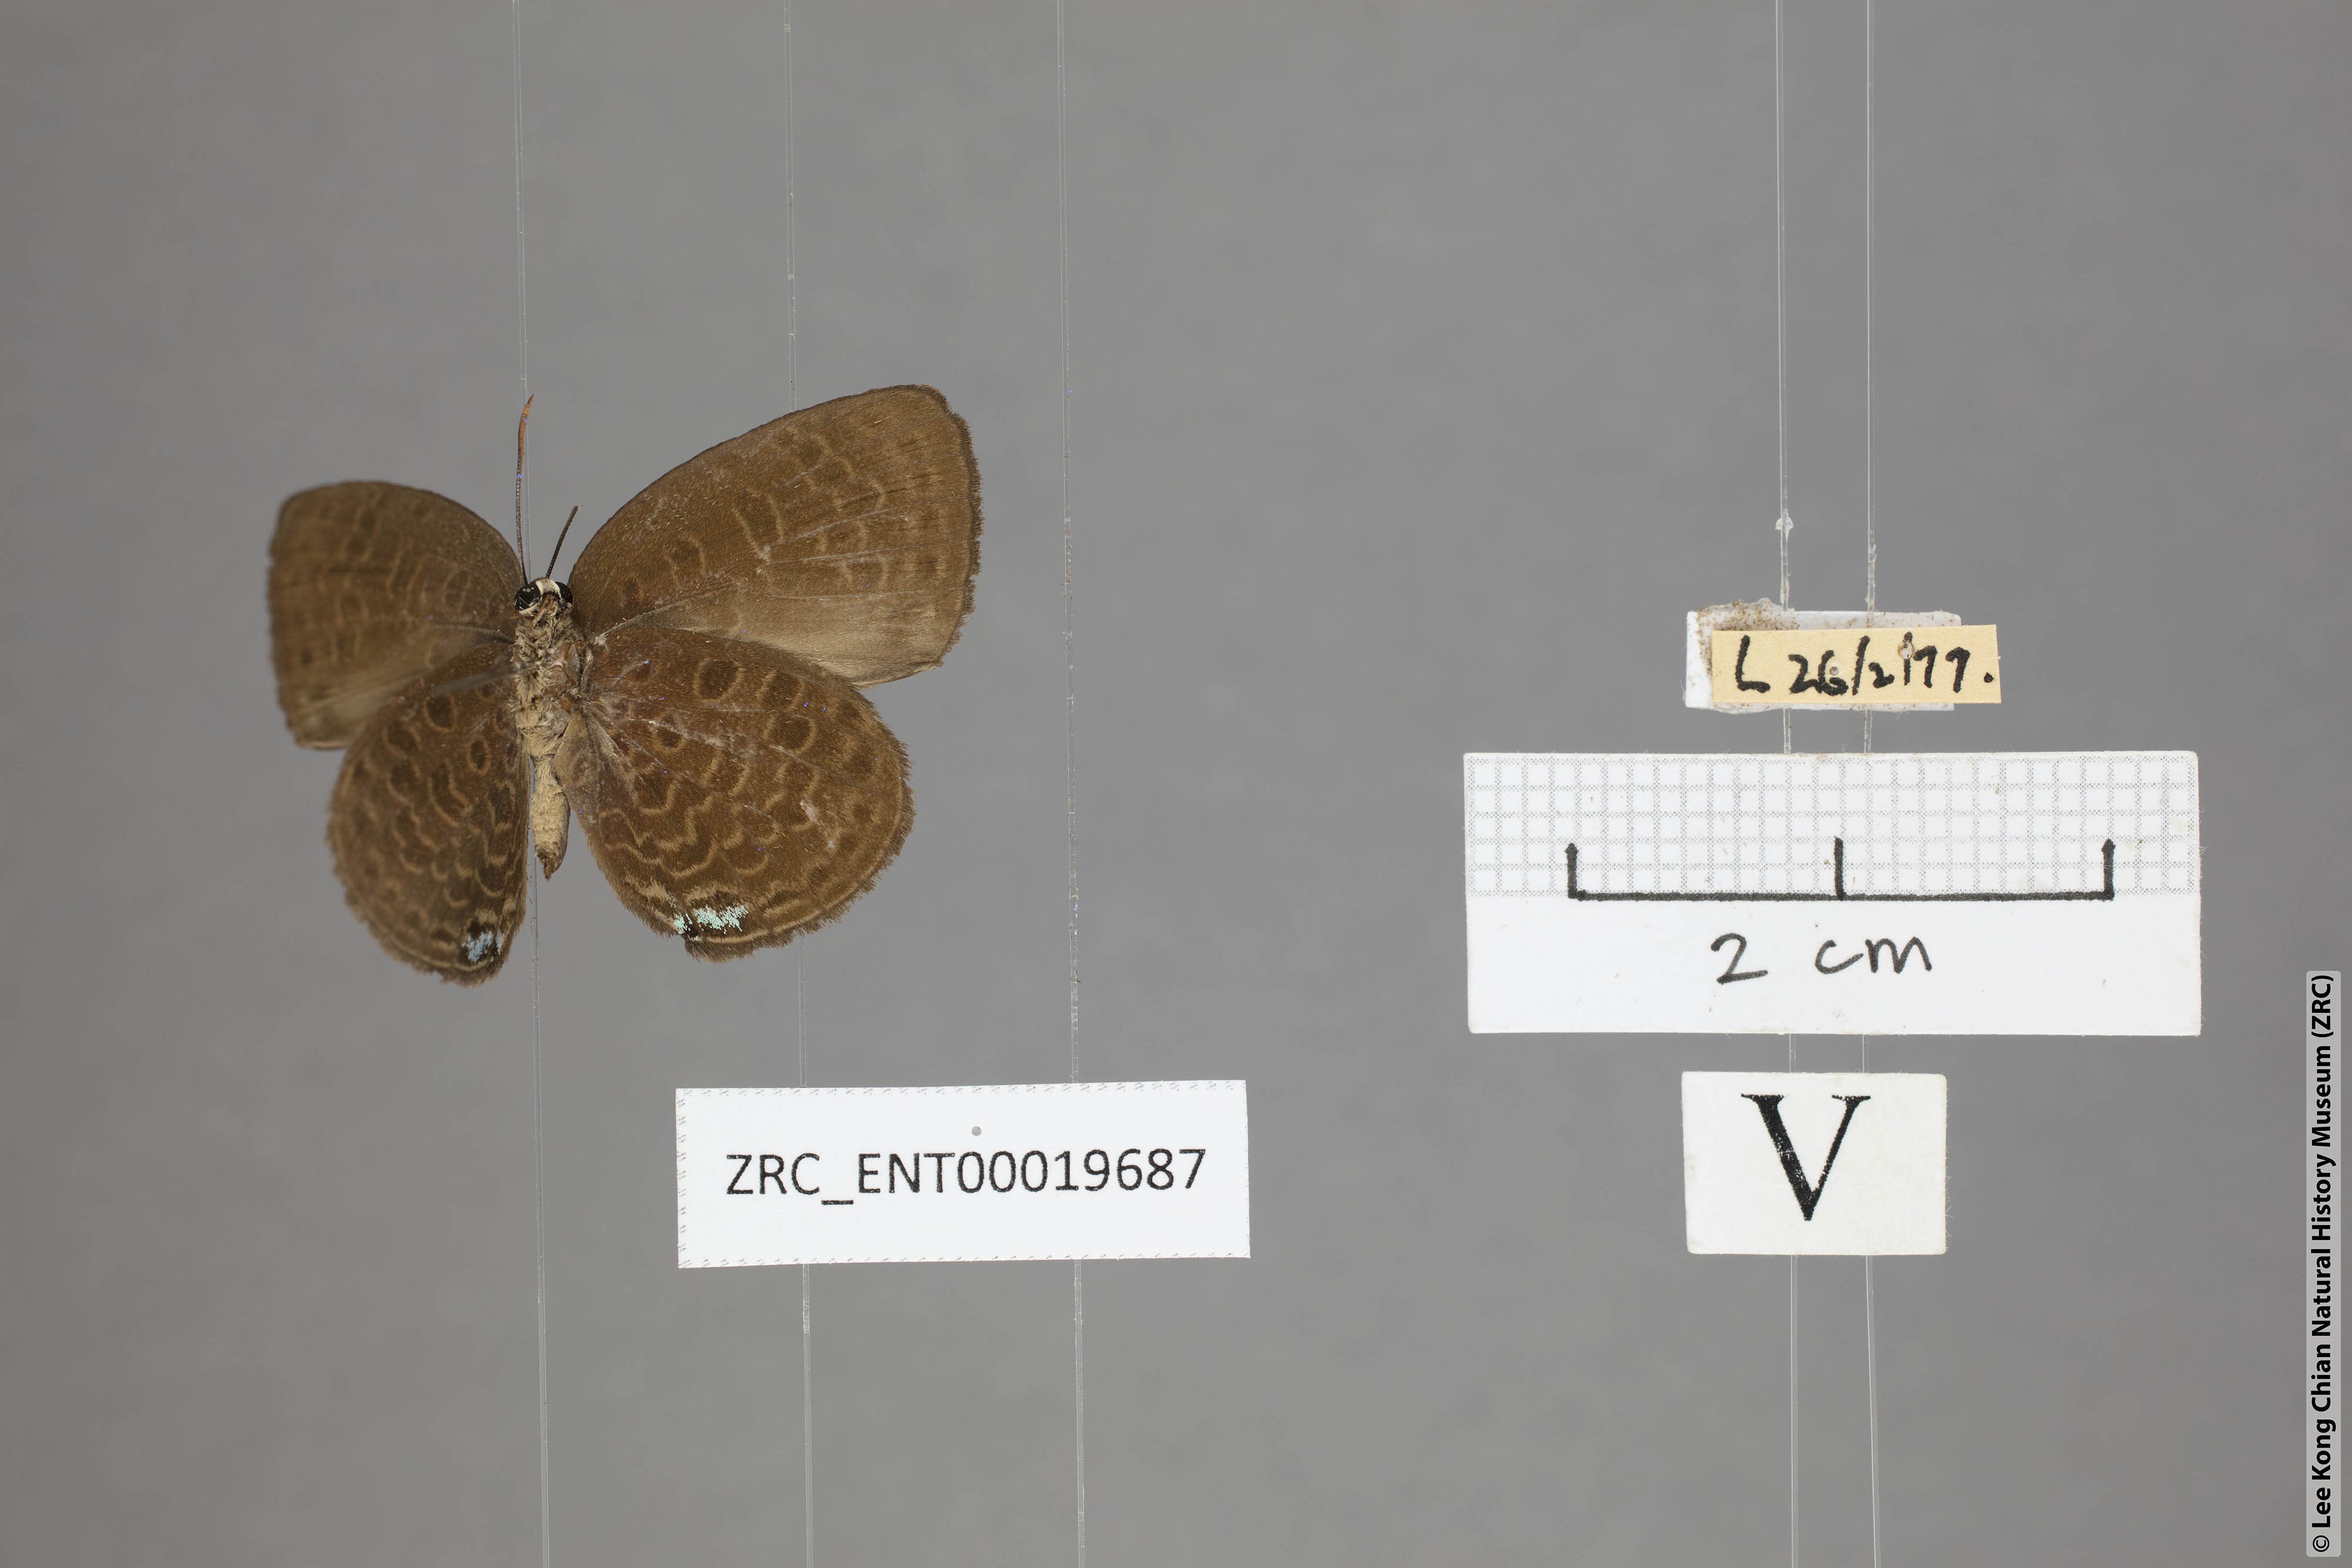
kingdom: Animalia
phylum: Arthropoda
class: Insecta
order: Lepidoptera
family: Lycaenidae
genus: Arhopala
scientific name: Arhopala moorei
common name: Moore's oakblue
